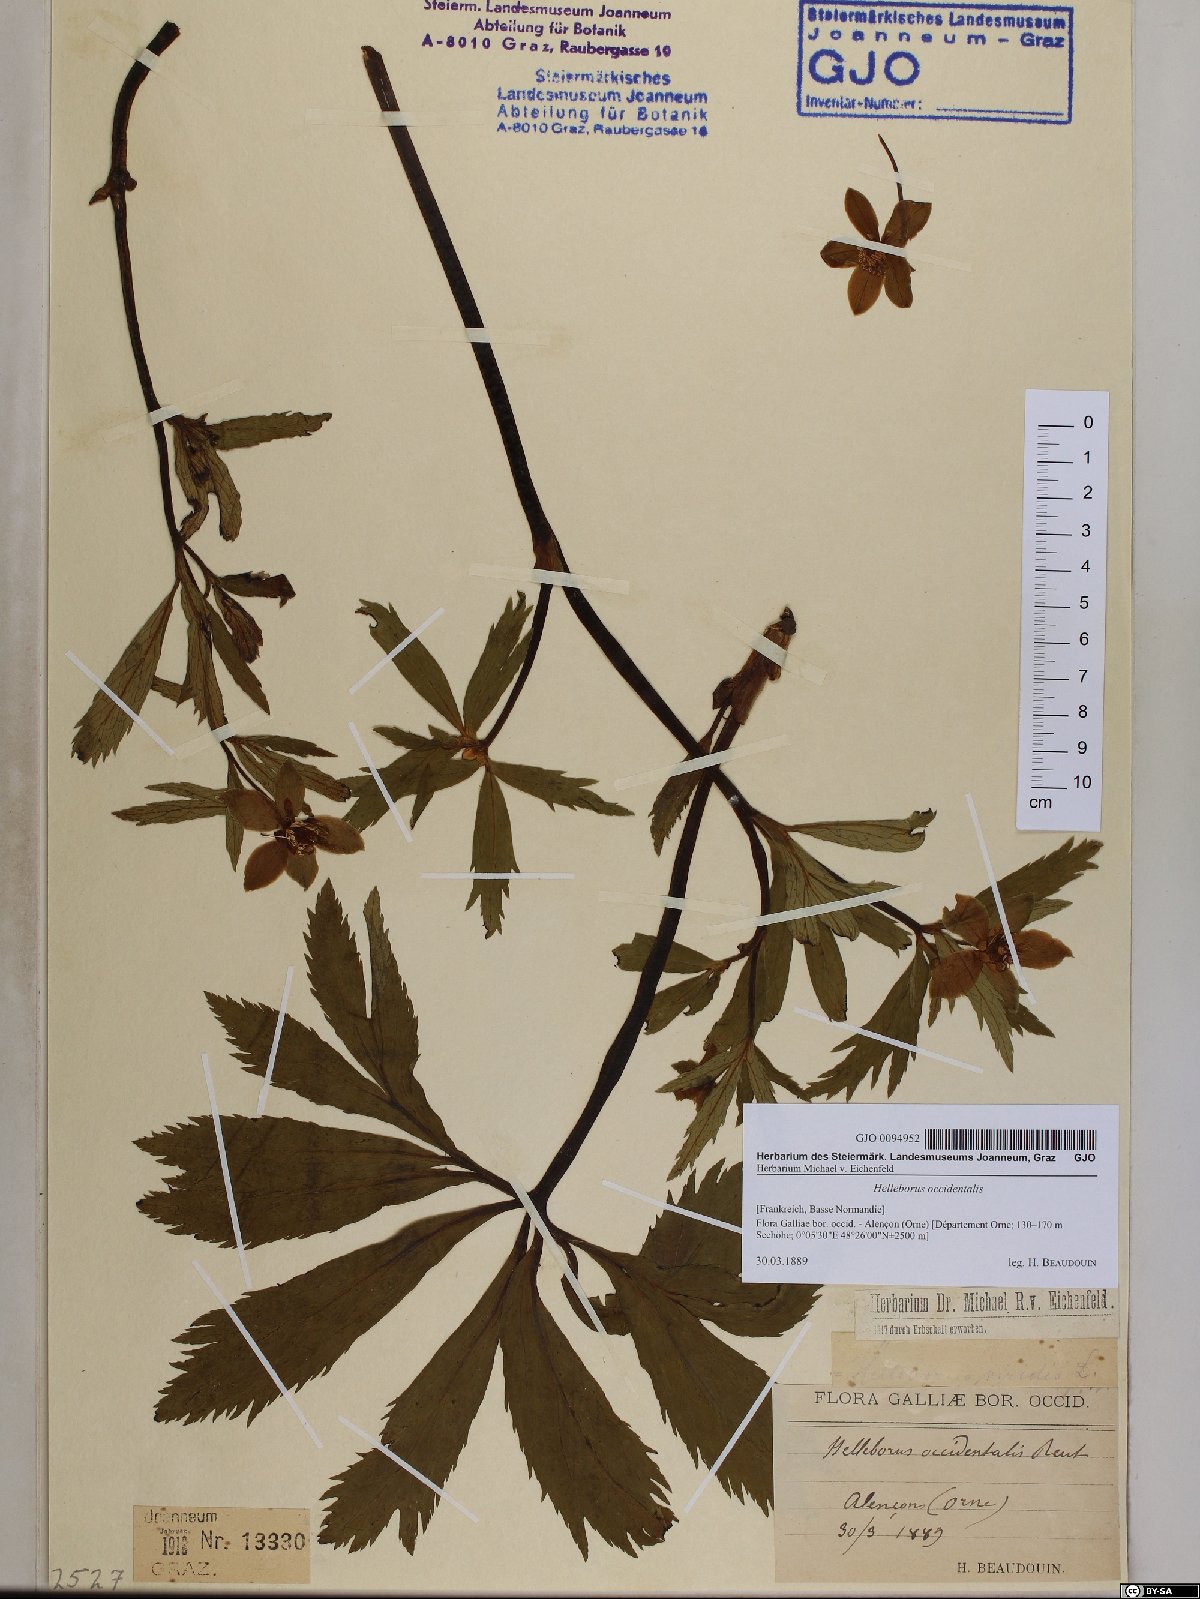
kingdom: Plantae
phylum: Tracheophyta
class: Magnoliopsida
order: Ranunculales
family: Ranunculaceae
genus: Helleborus
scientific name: Helleborus viridis
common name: Green hellebore
